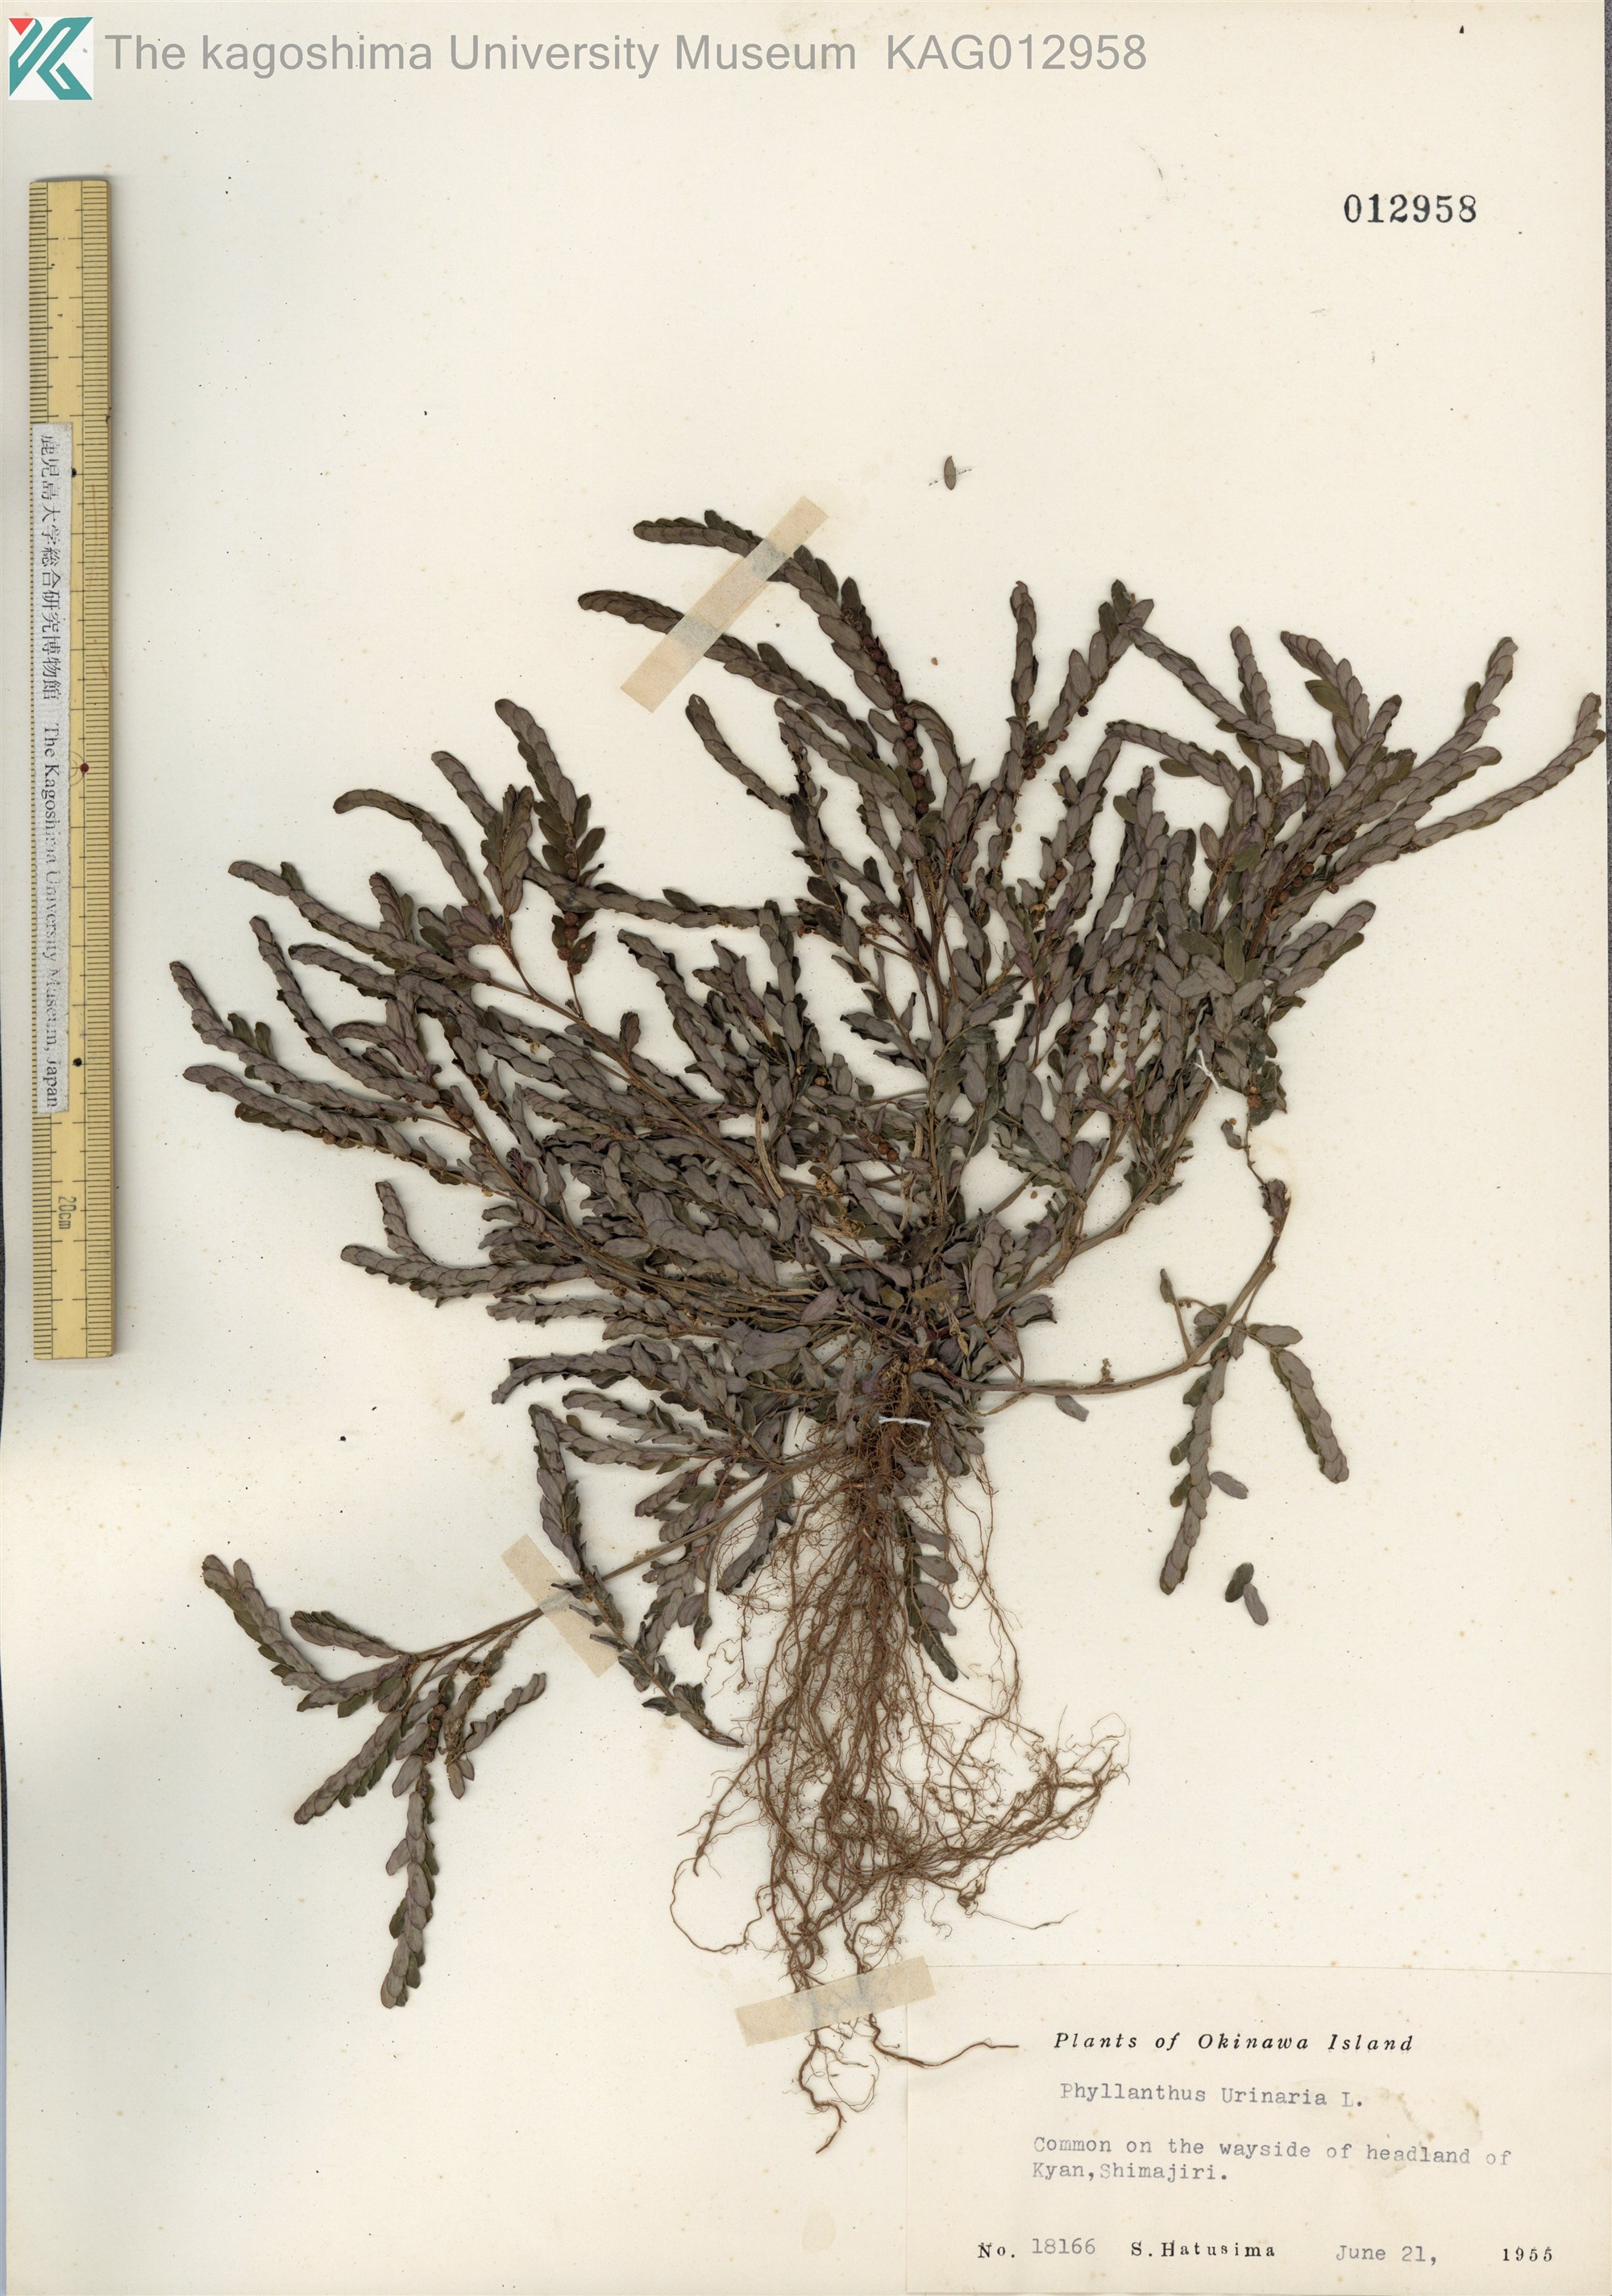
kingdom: Plantae
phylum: Tracheophyta
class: Magnoliopsida
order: Malpighiales
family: Phyllanthaceae
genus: Phyllanthus
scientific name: Phyllanthus urinaria
